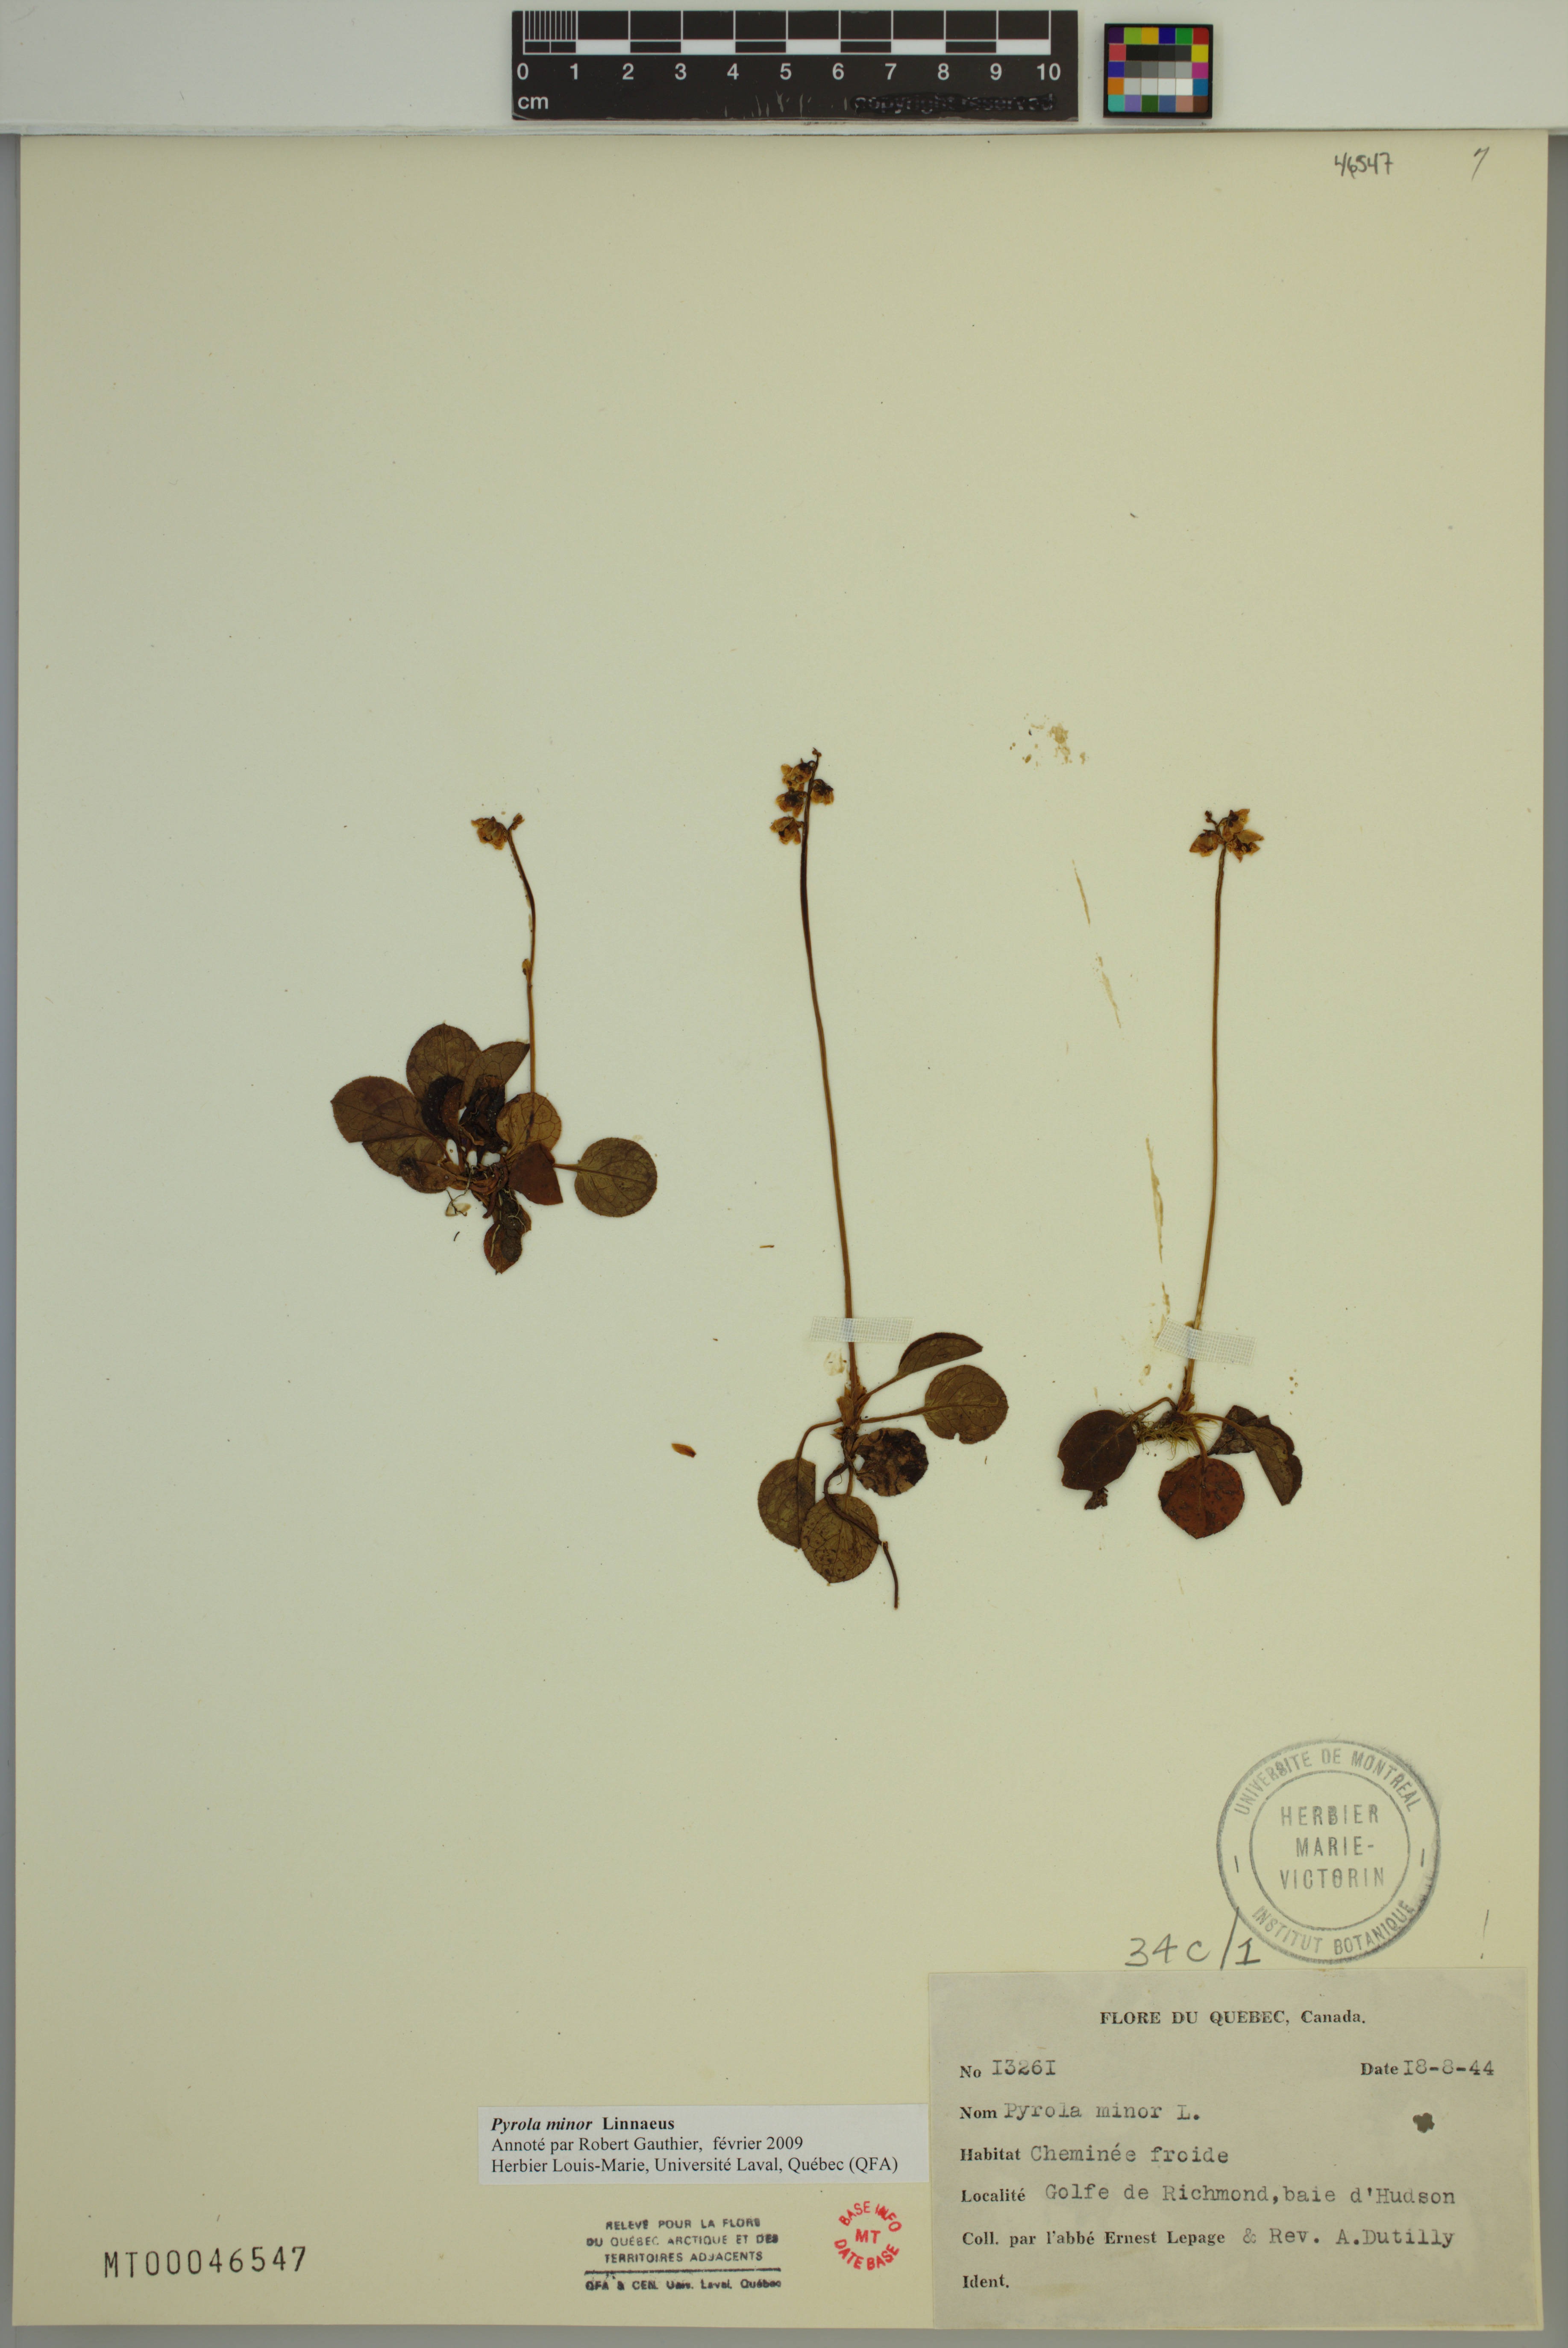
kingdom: Plantae
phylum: Tracheophyta
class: Magnoliopsida
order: Ericales
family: Ericaceae
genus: Pyrola
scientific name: Pyrola minor
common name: Common wintergreen
